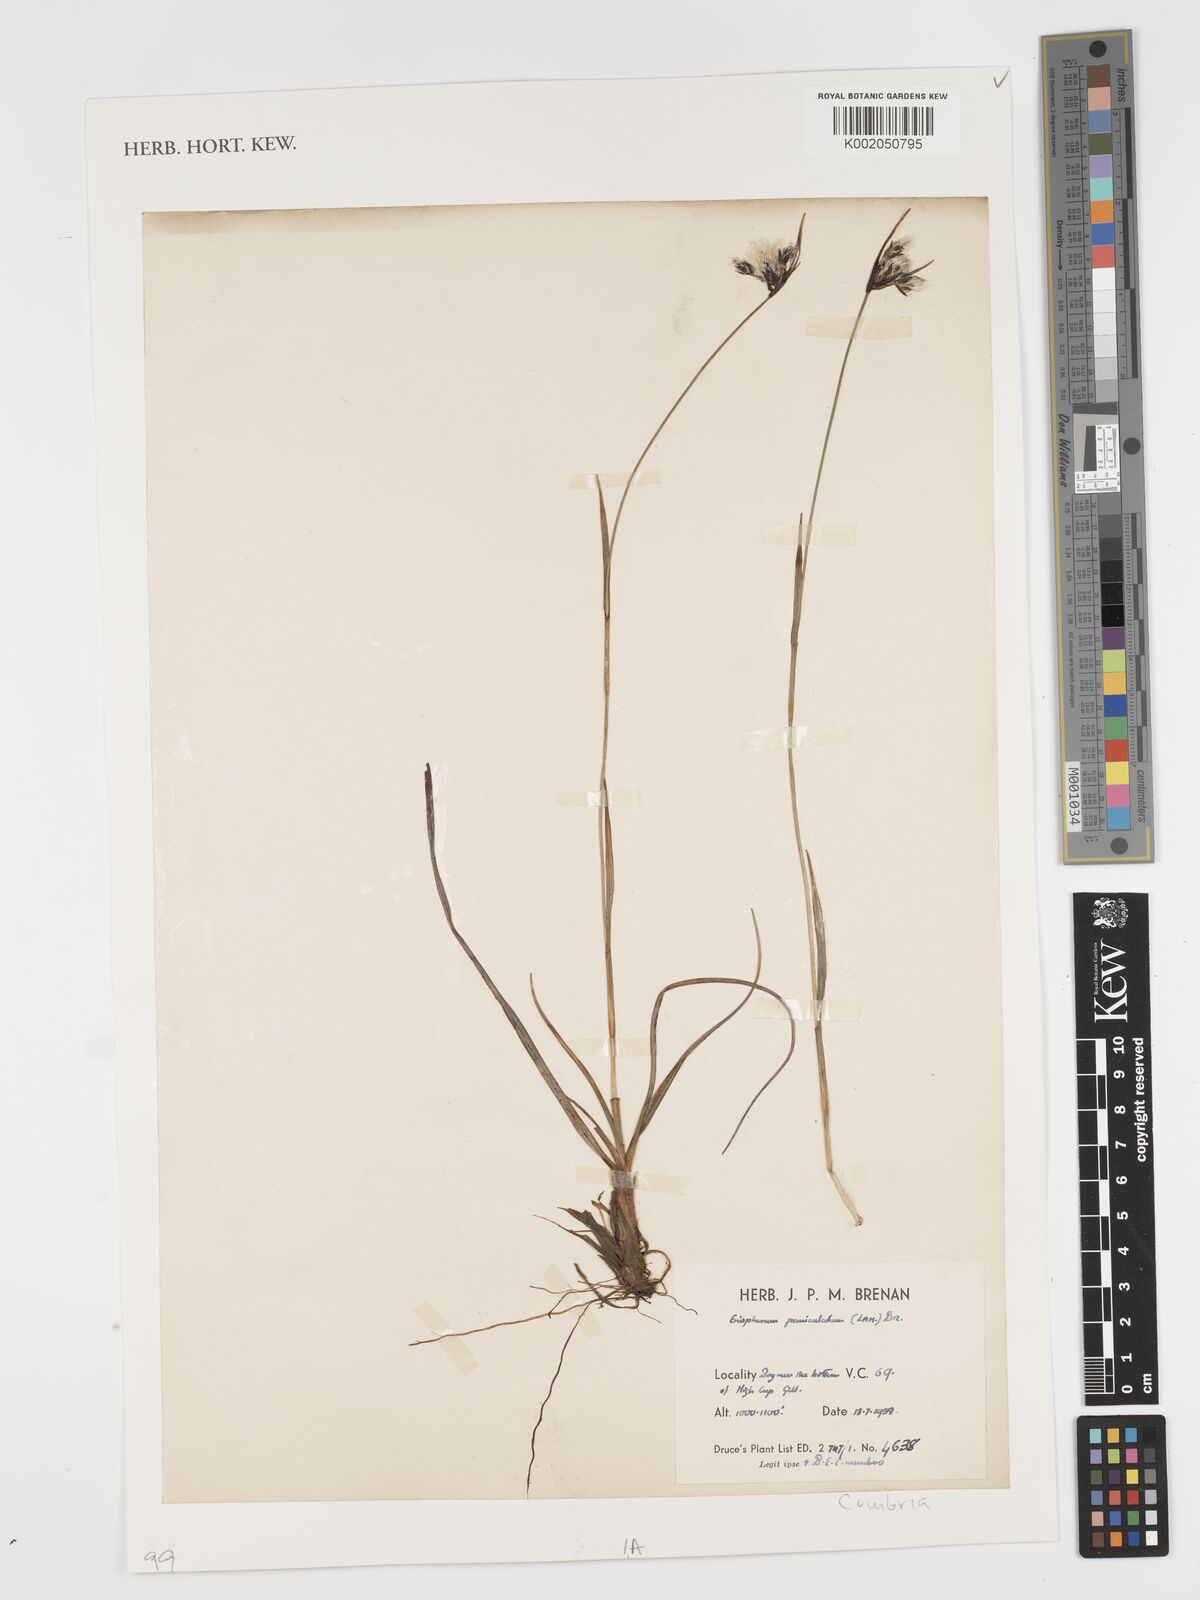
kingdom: Plantae
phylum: Tracheophyta
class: Liliopsida
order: Poales
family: Cyperaceae
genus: Eriophorum
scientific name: Eriophorum angustifolium
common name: Common cottongrass
